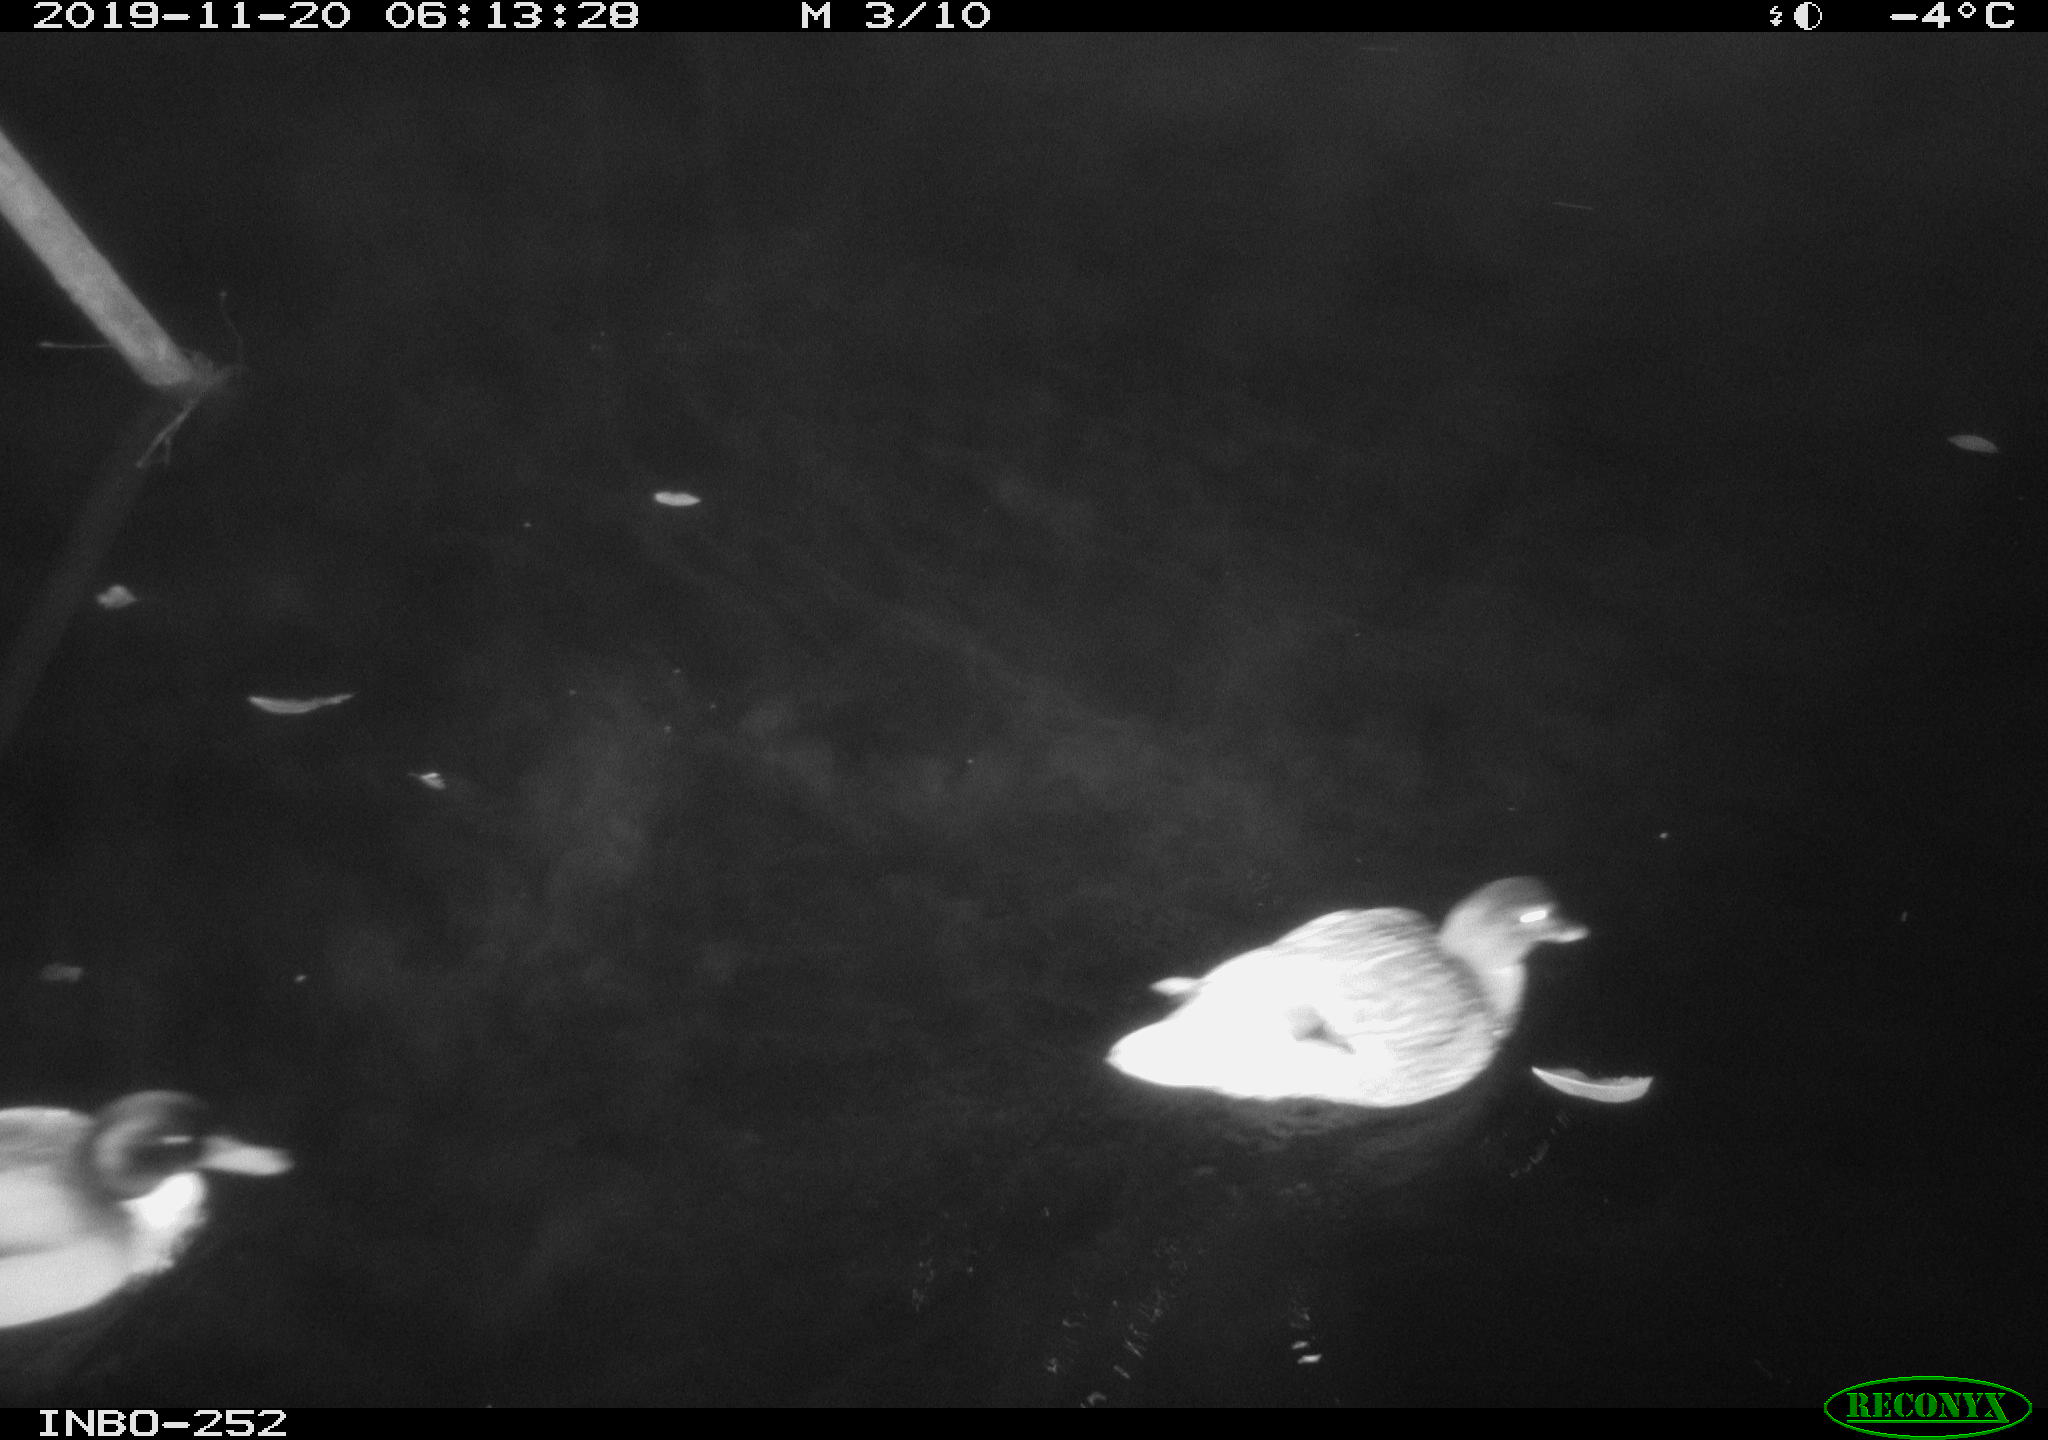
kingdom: Animalia
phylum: Chordata
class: Aves
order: Anseriformes
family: Anatidae
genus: Anas
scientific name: Anas platyrhynchos
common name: Mallard
